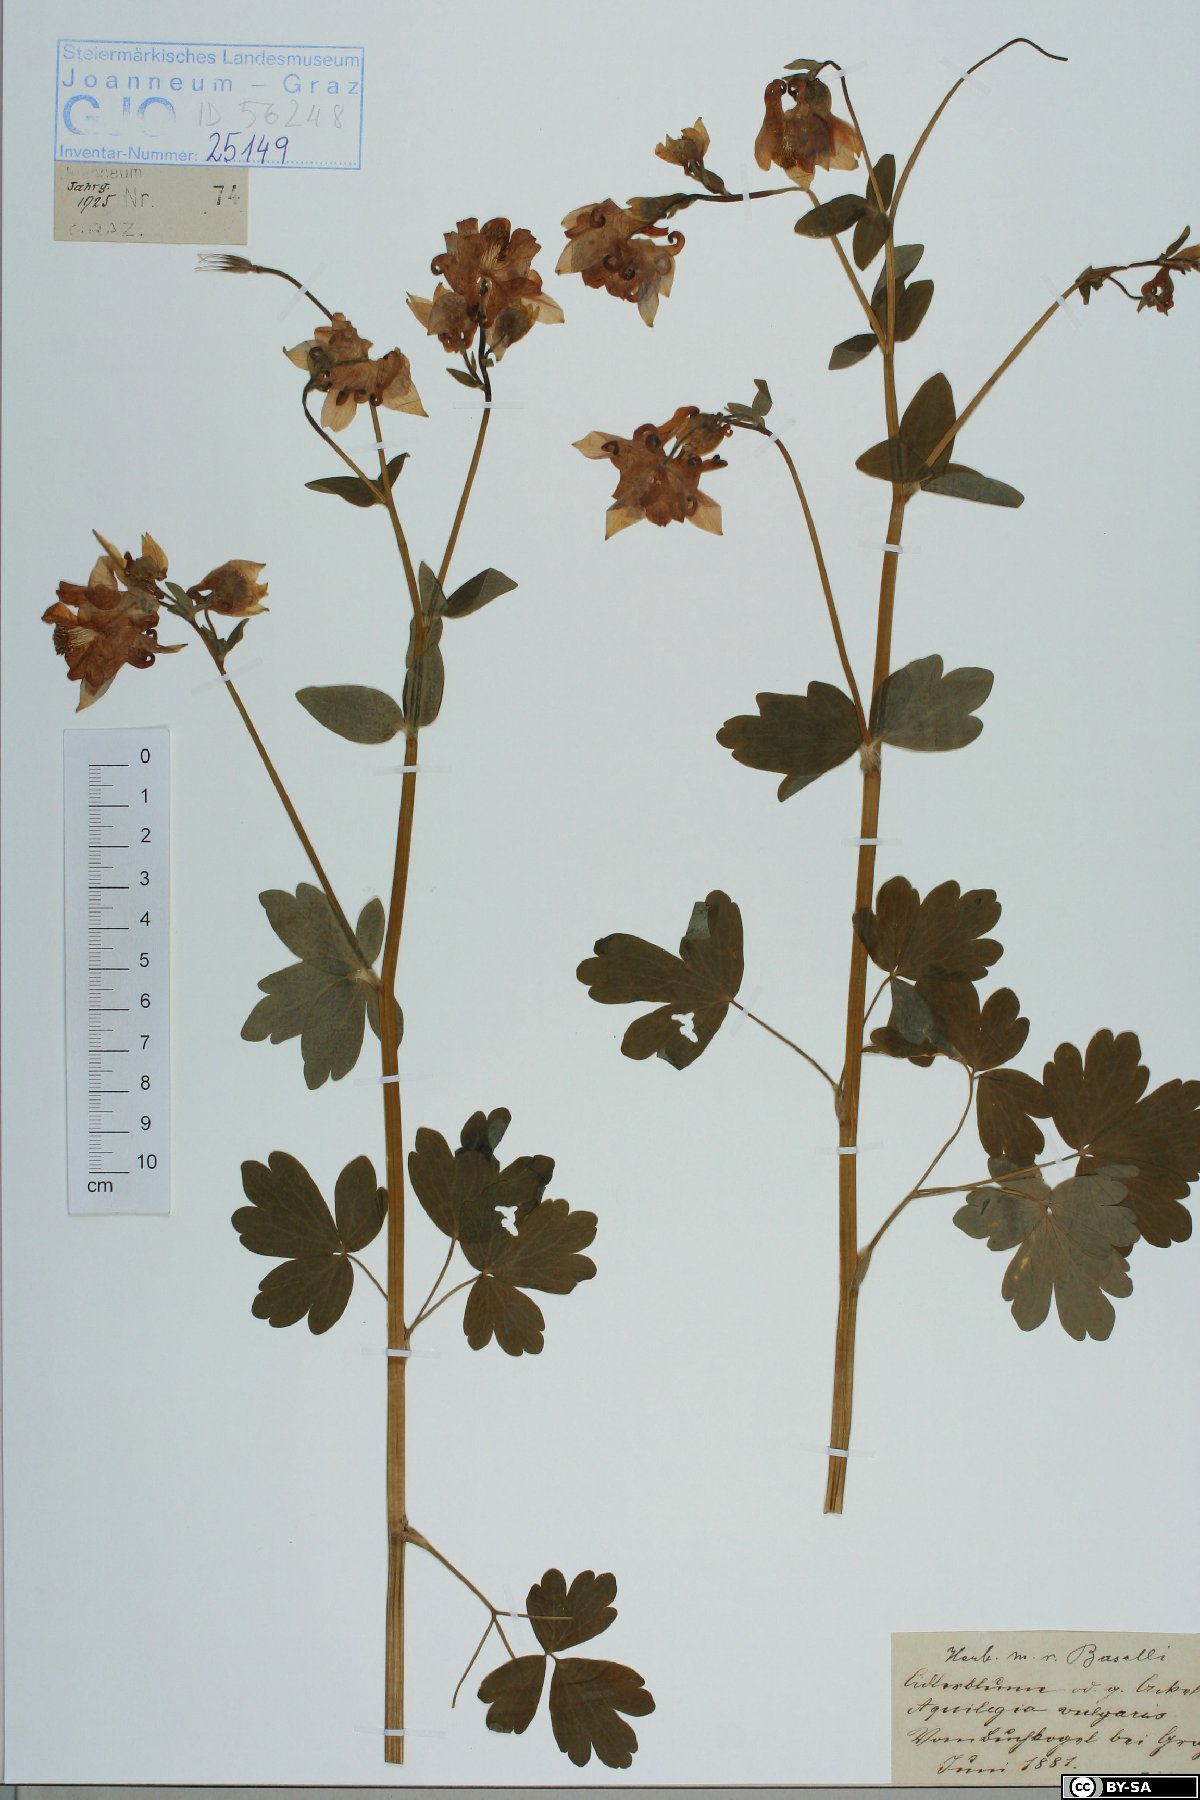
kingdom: Plantae
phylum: Tracheophyta
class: Magnoliopsida
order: Ranunculales
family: Ranunculaceae
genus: Aquilegia
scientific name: Aquilegia vulgaris
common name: Columbine
